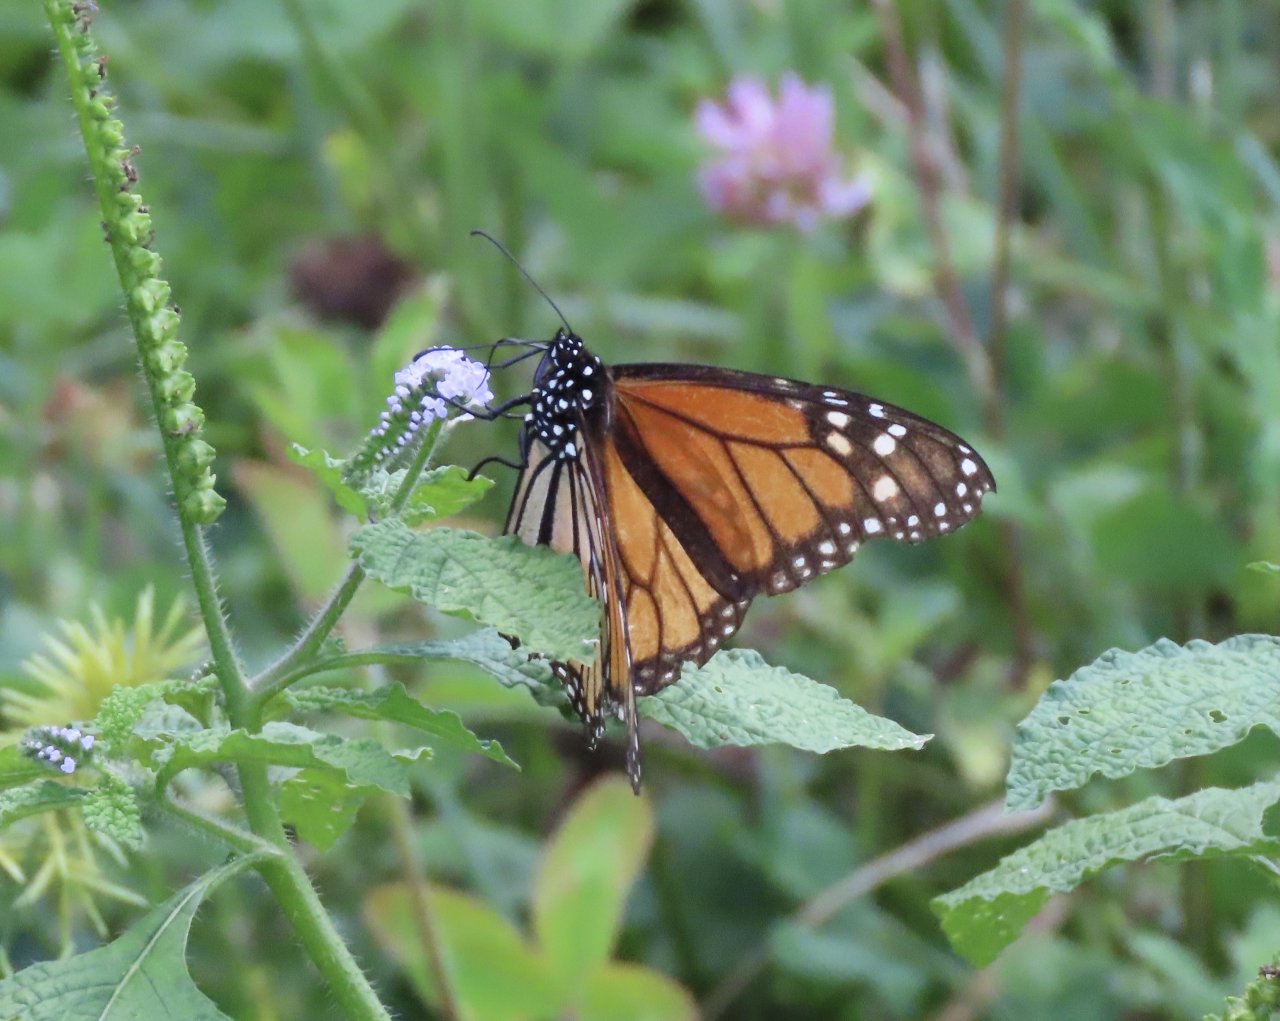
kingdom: Animalia
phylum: Arthropoda
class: Insecta
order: Lepidoptera
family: Nymphalidae
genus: Danaus
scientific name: Danaus plexippus
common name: Monarch
